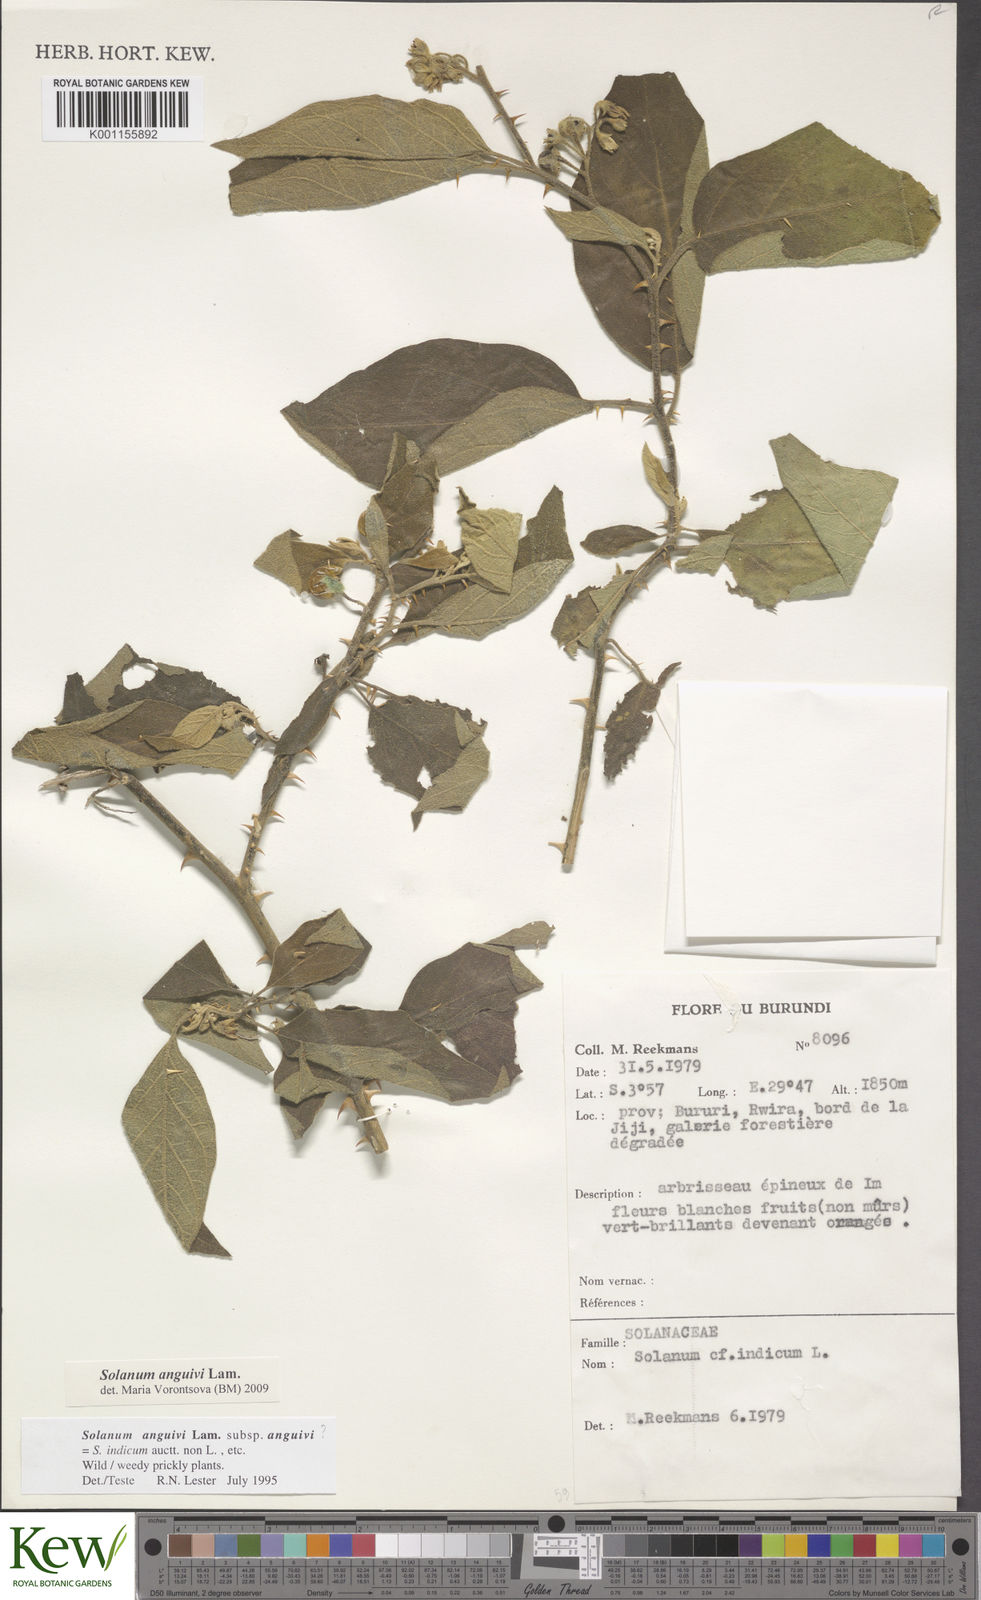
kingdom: Plantae
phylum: Tracheophyta
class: Magnoliopsida
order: Solanales
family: Solanaceae
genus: Solanum
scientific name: Solanum anguivi
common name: Forest bitterberry
